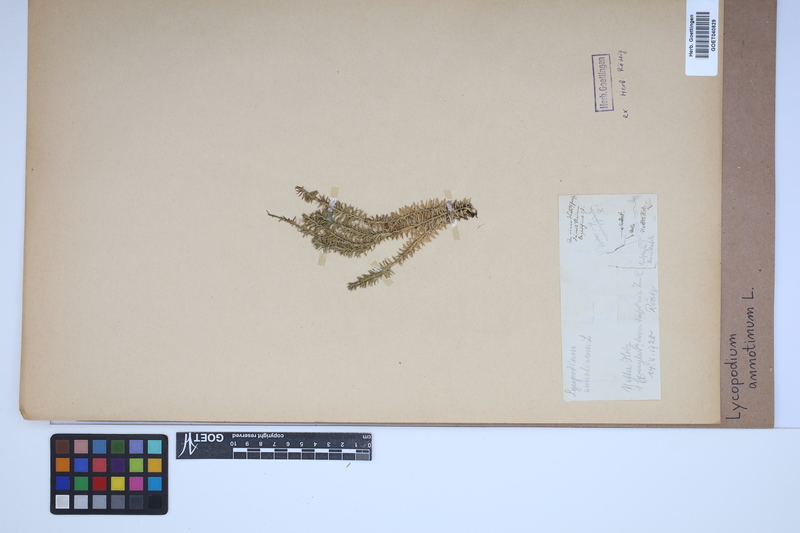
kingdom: Plantae
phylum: Tracheophyta
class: Lycopodiopsida
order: Lycopodiales
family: Lycopodiaceae
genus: Spinulum
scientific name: Spinulum annotinum
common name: Interrupted club-moss
